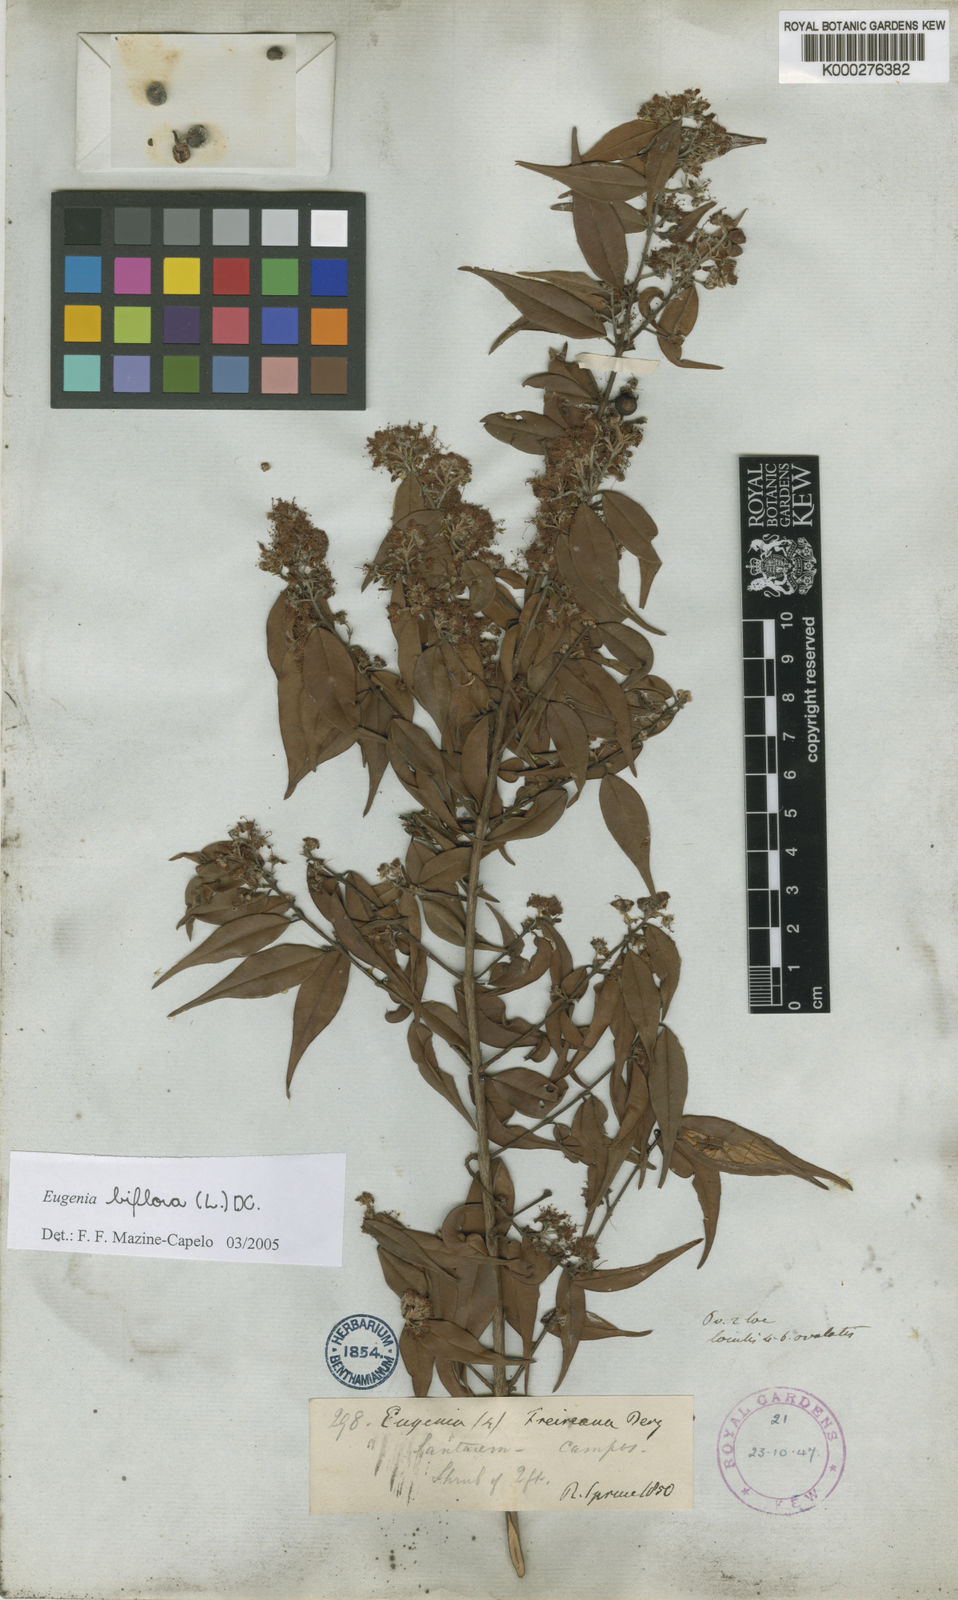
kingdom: Plantae
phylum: Tracheophyta
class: Magnoliopsida
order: Myrtales
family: Myrtaceae
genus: Eugenia
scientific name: Eugenia biflora
